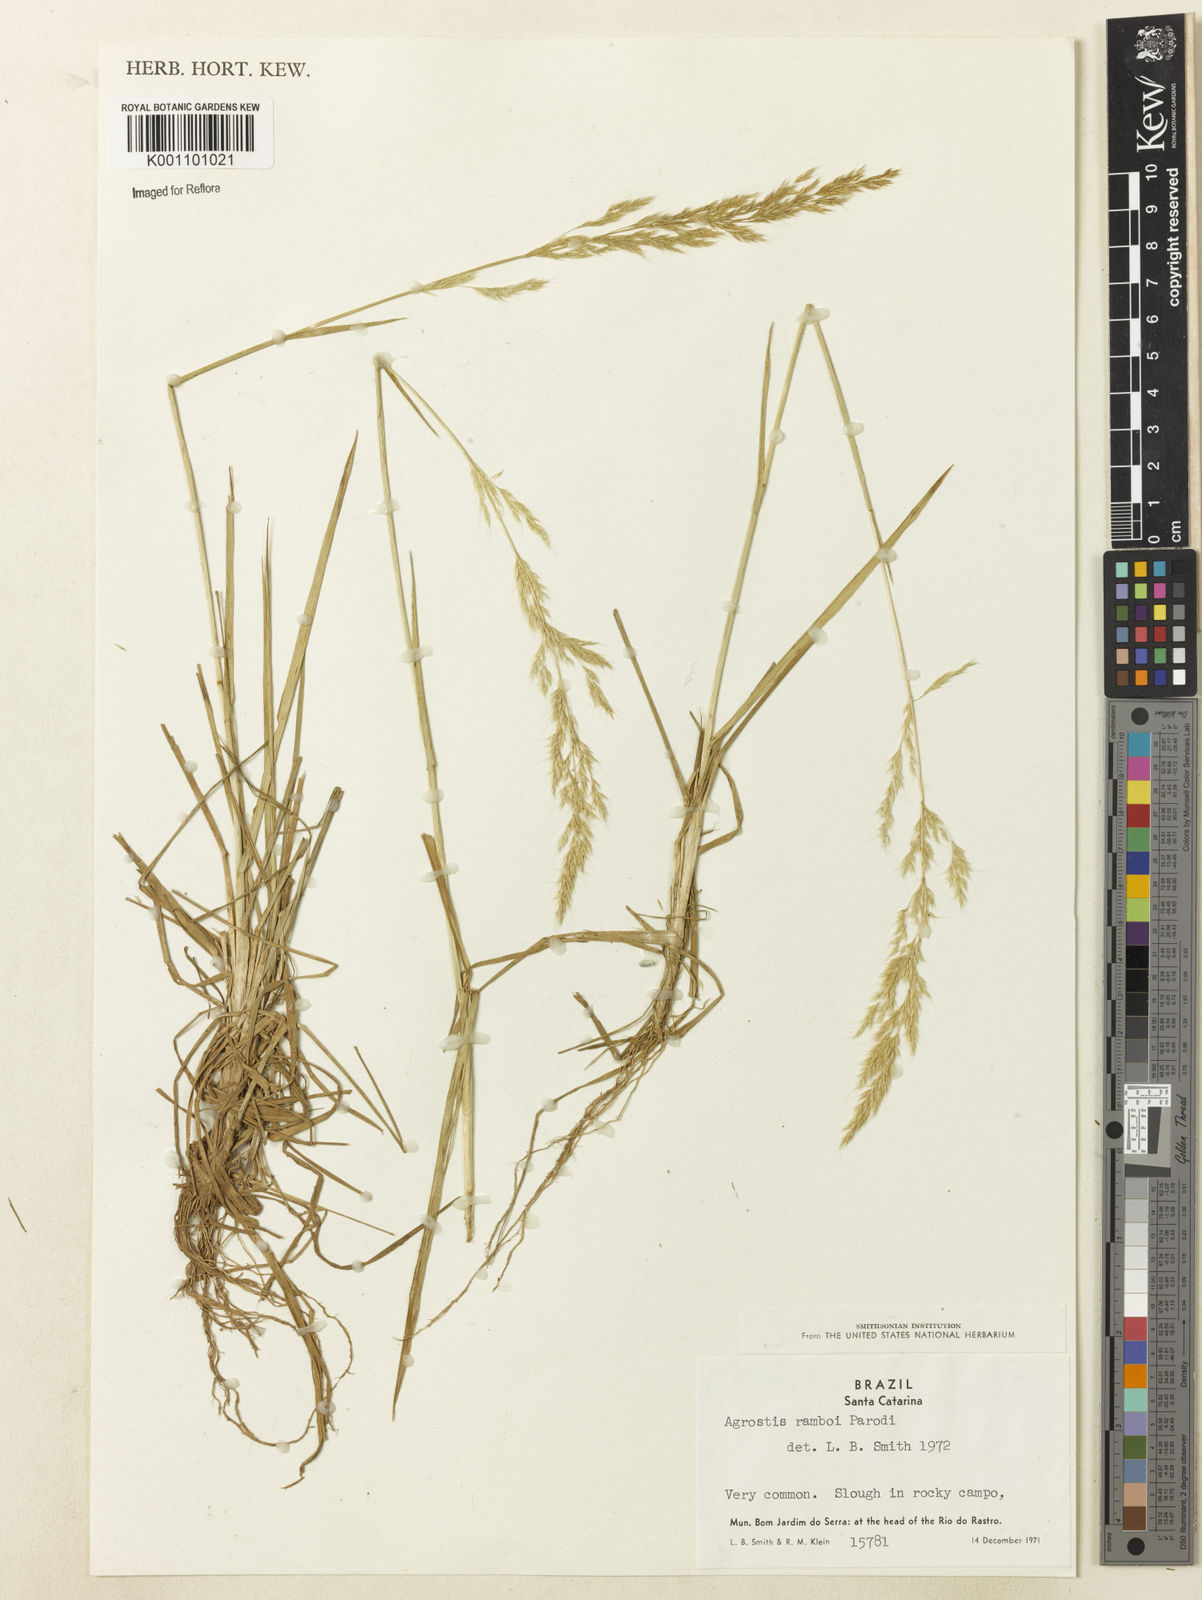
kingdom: Plantae
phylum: Tracheophyta
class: Liliopsida
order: Poales
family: Poaceae
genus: Agrostis
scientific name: Agrostis hygrometrica
